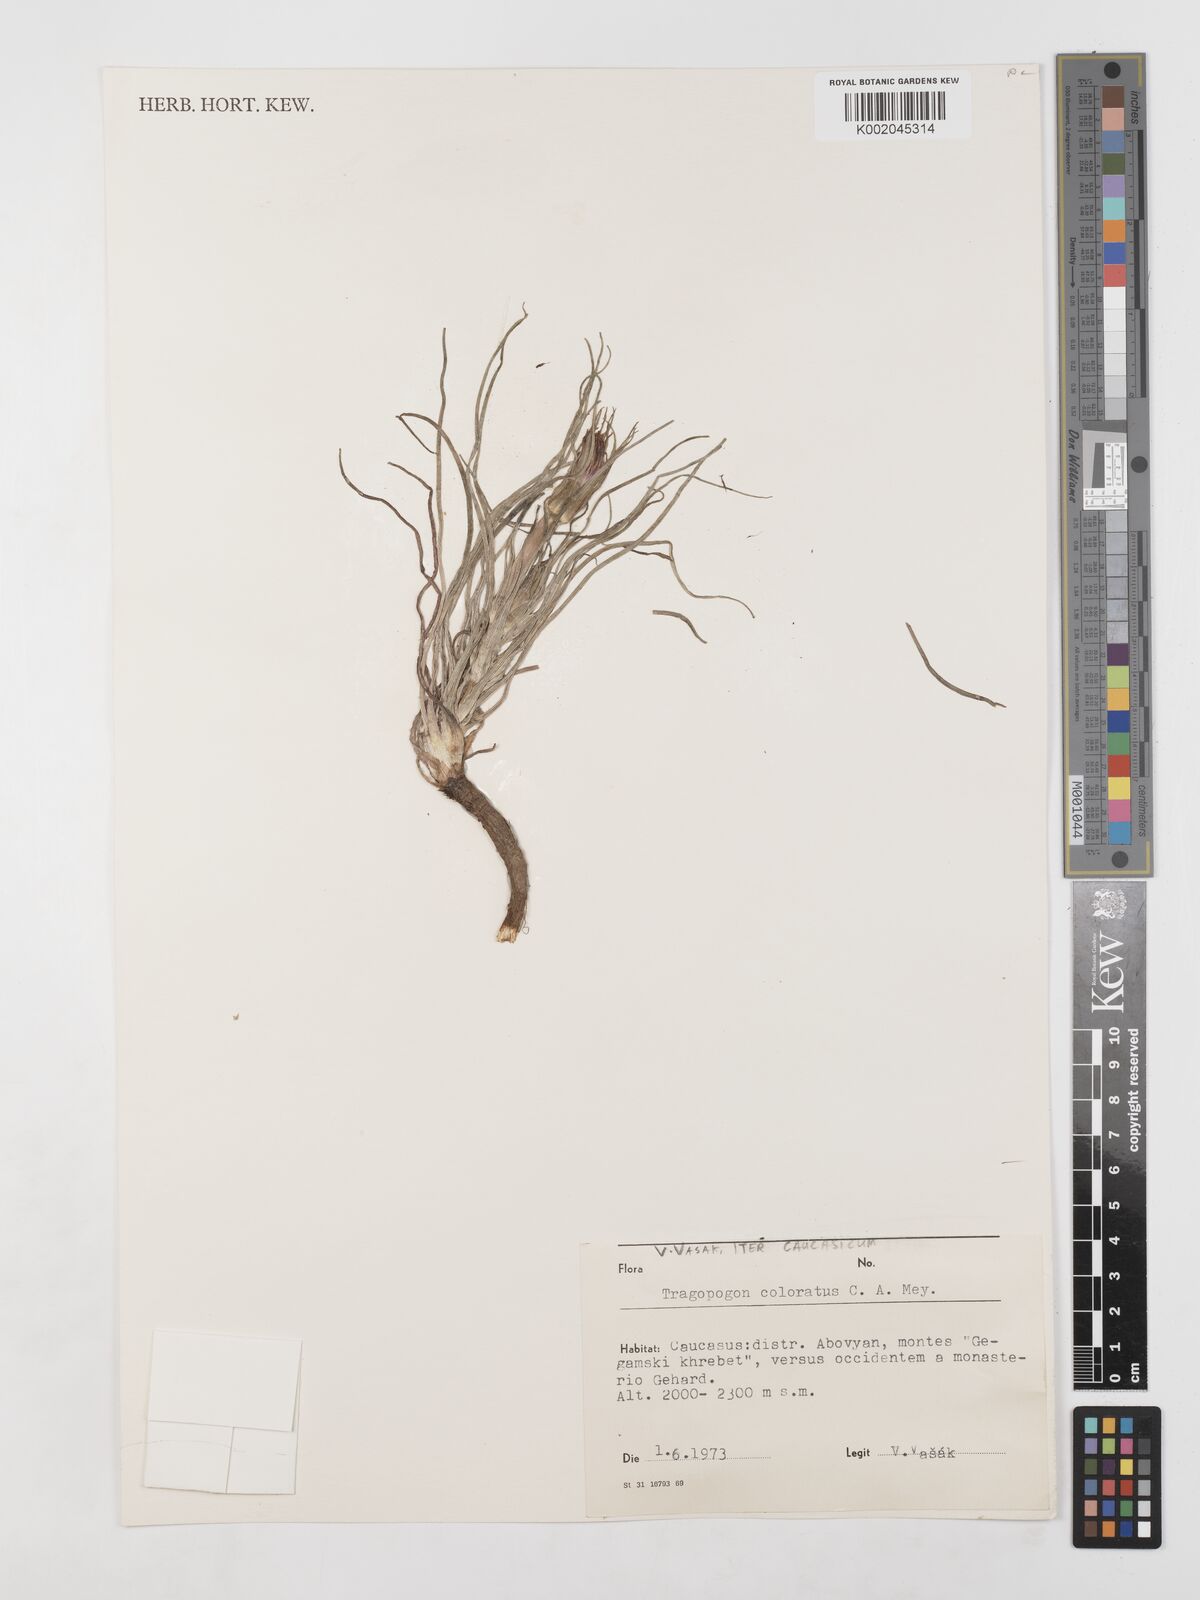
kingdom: Plantae
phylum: Tracheophyta
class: Magnoliopsida
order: Asterales
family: Asteraceae
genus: Tragopogon
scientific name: Tragopogon coloratus
